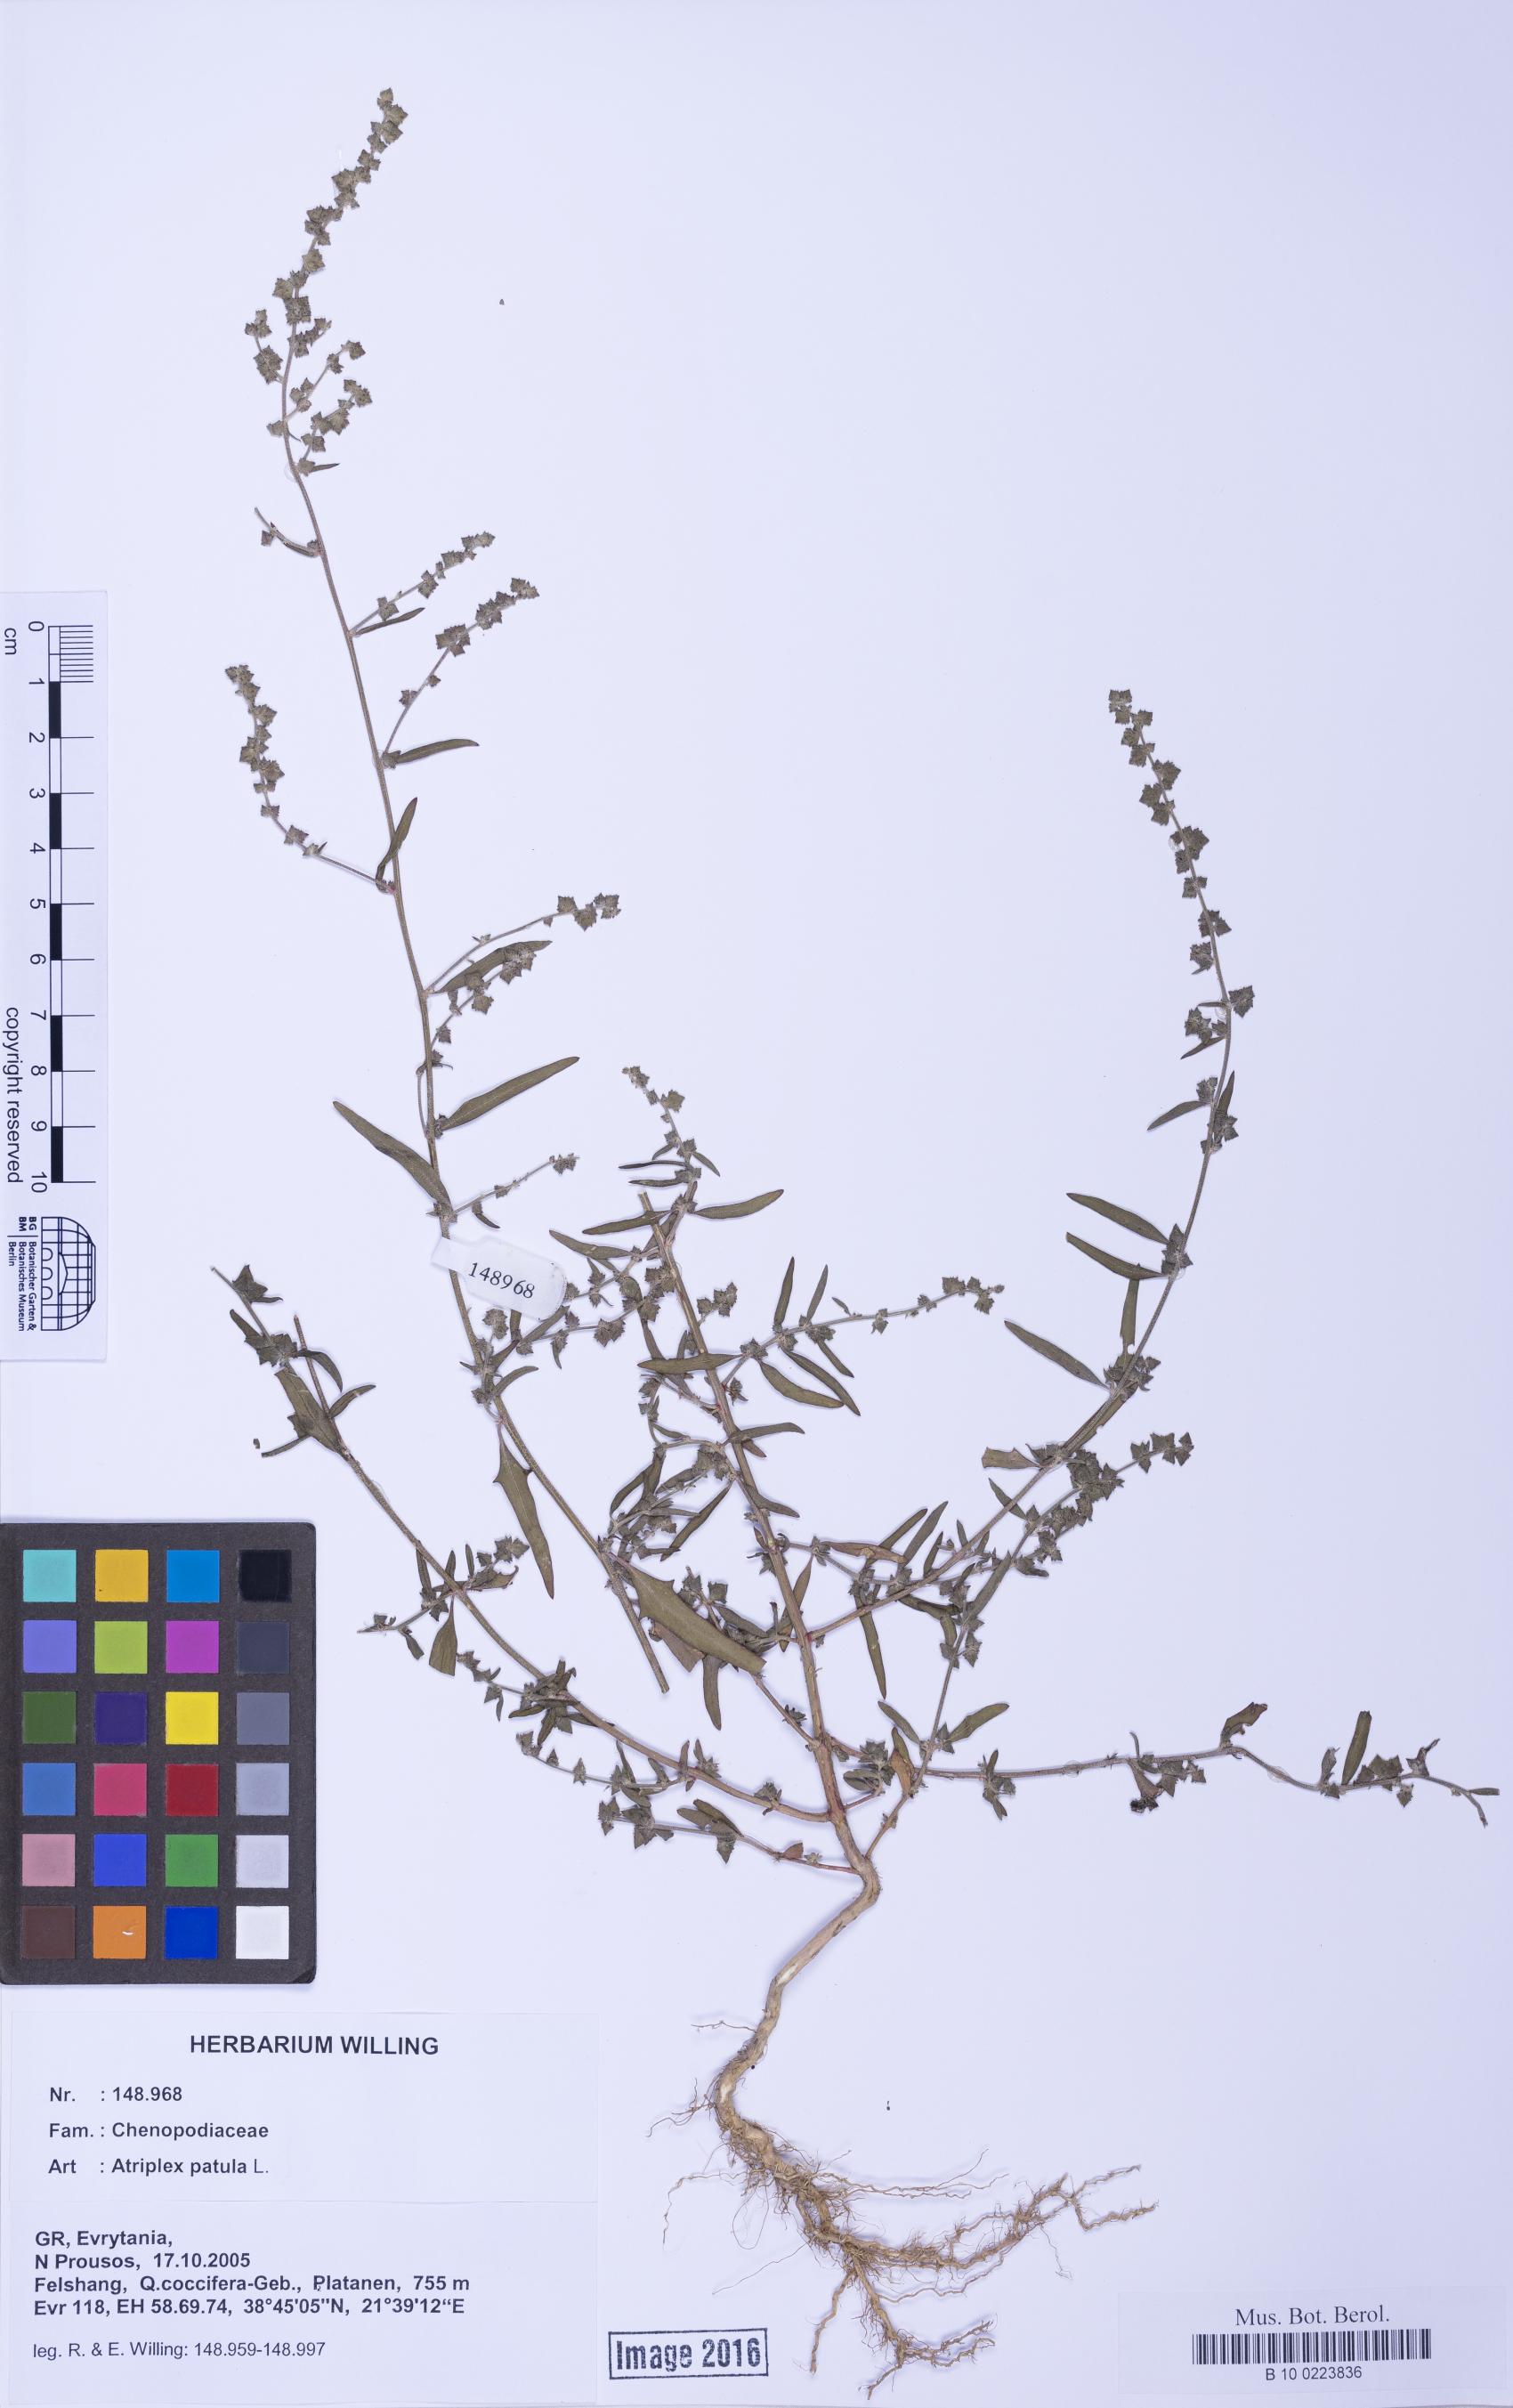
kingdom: Plantae
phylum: Tracheophyta
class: Magnoliopsida
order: Caryophyllales
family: Amaranthaceae
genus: Atriplex
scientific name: Atriplex patula
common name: Common orache
